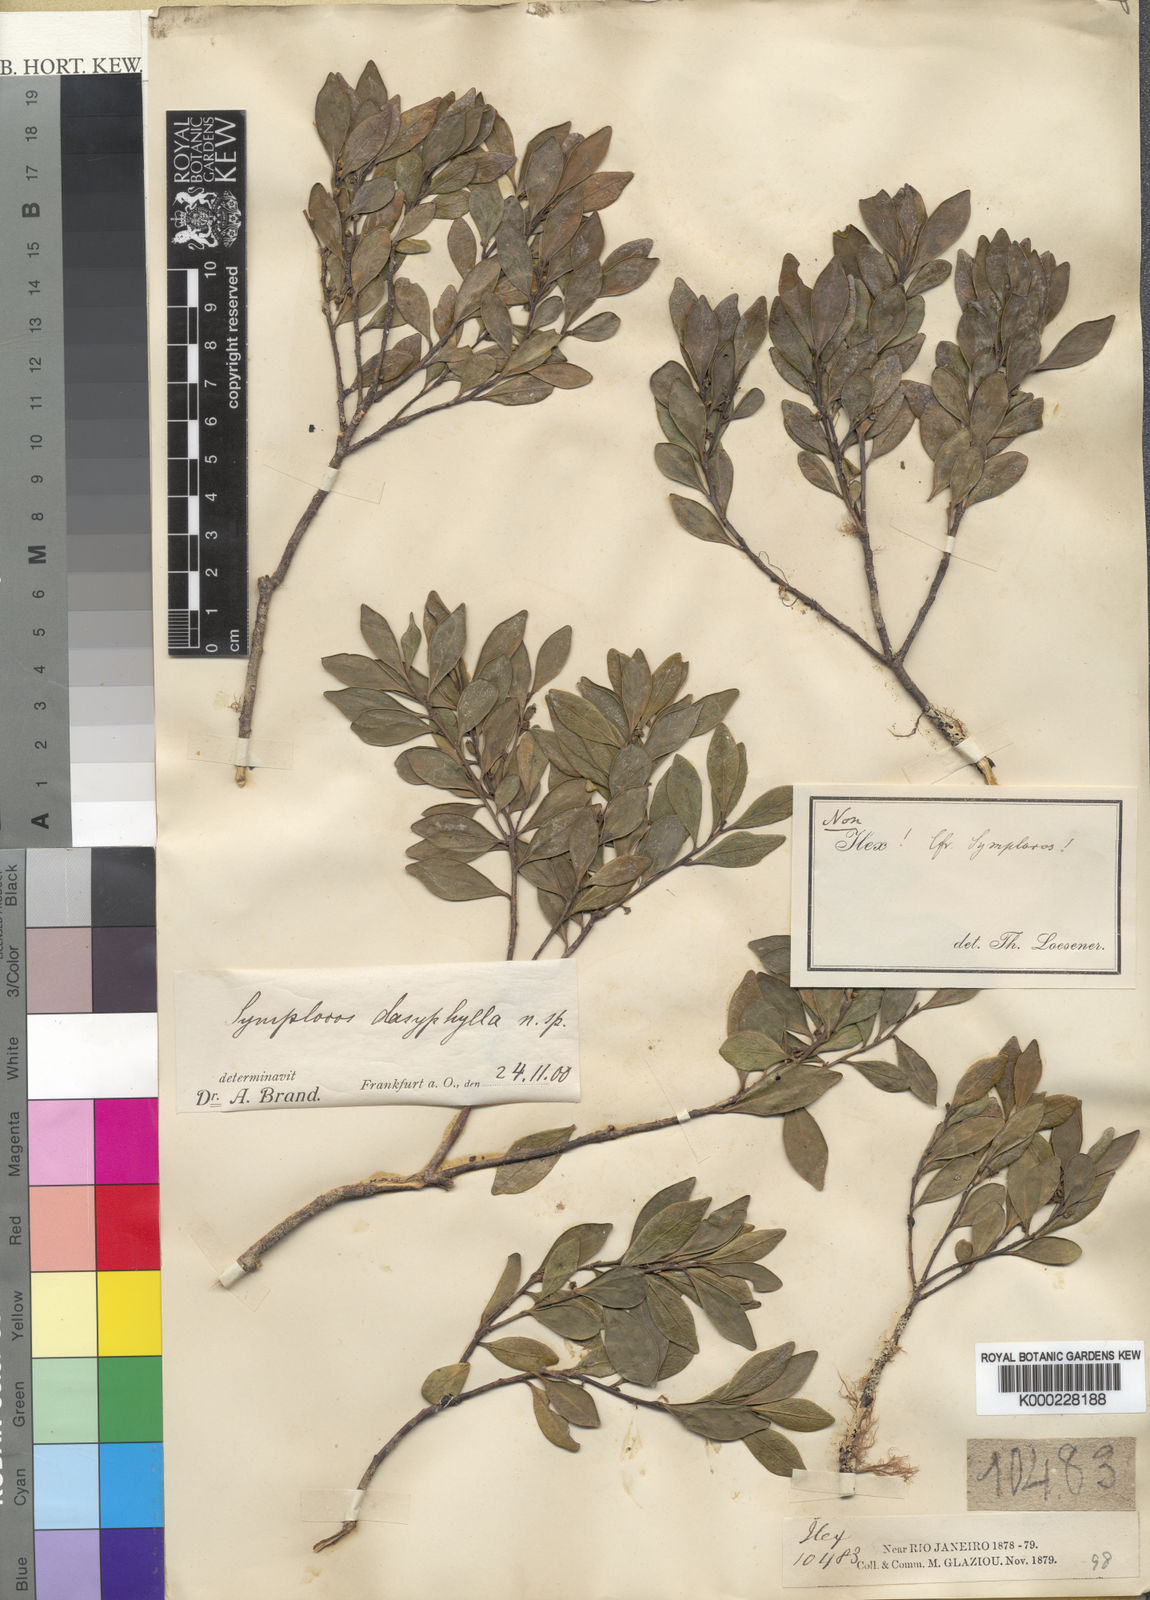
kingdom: Plantae
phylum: Tracheophyta
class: Magnoliopsida
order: Ericales
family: Symplocaceae
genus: Symplocos
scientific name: Symplocos dasyphylla
